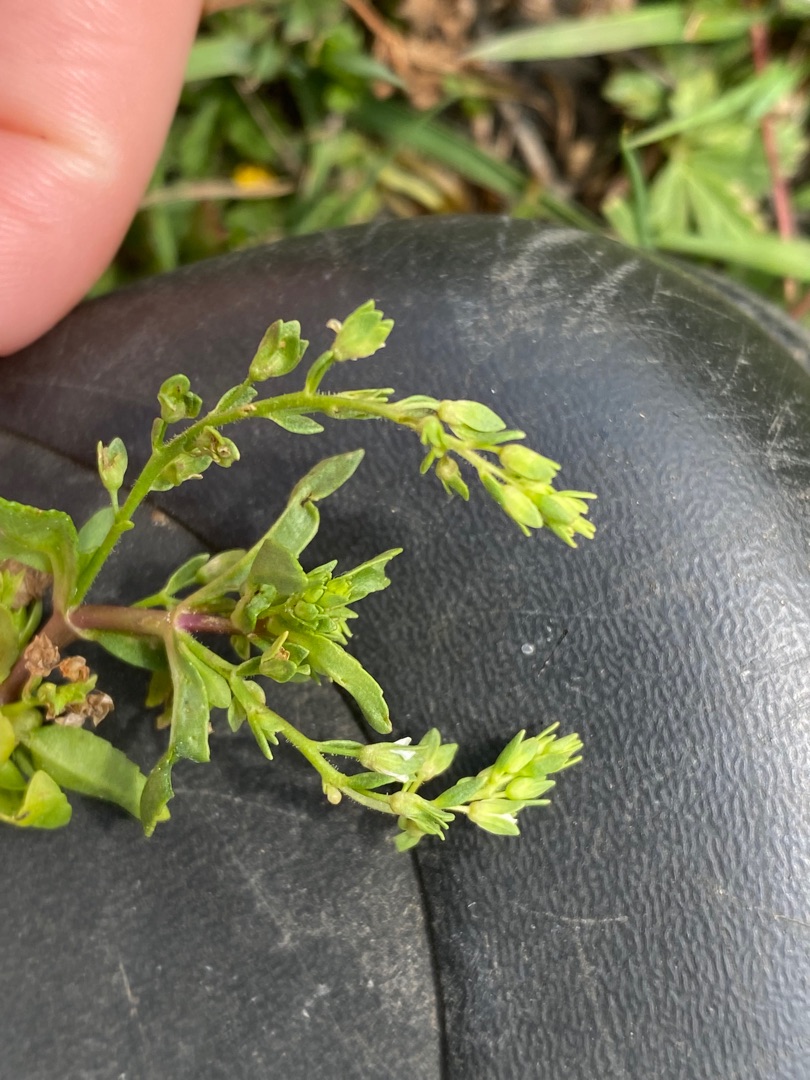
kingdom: Plantae
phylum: Tracheophyta
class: Magnoliopsida
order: Lamiales
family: Plantaginaceae
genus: Veronica
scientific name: Veronica anagallis-aquatica
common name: Lancetbladet ærenpris
